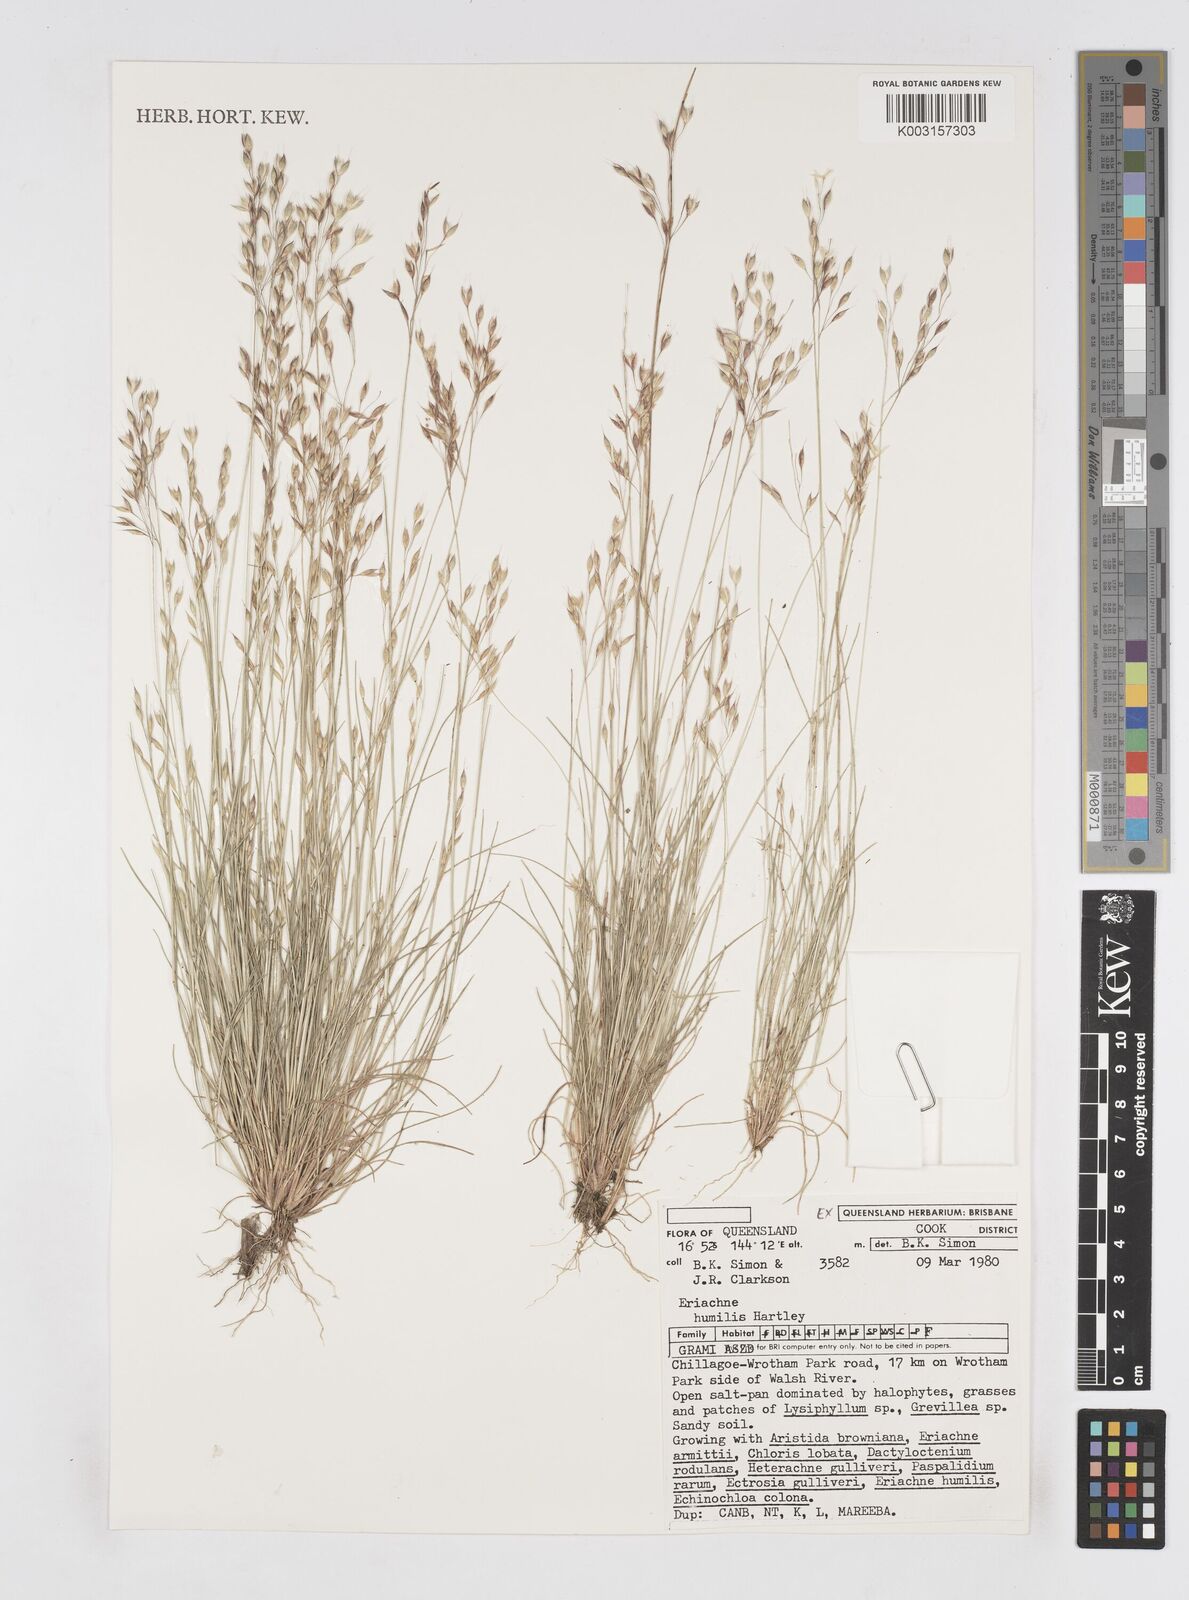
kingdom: Plantae
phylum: Tracheophyta
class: Liliopsida
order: Poales
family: Poaceae
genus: Eriachne
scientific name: Eriachne humilis
